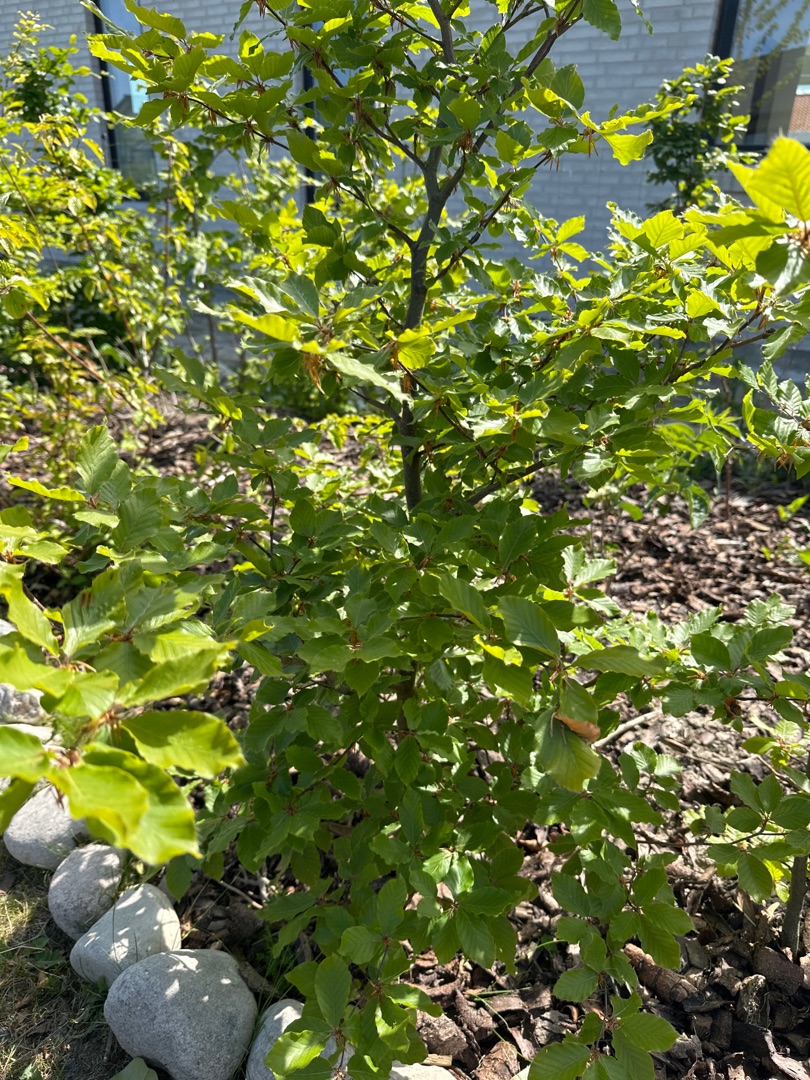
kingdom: Plantae
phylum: Tracheophyta
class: Magnoliopsida
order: Fagales
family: Fagaceae
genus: Fagus
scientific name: Fagus sylvatica
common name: Bøg
